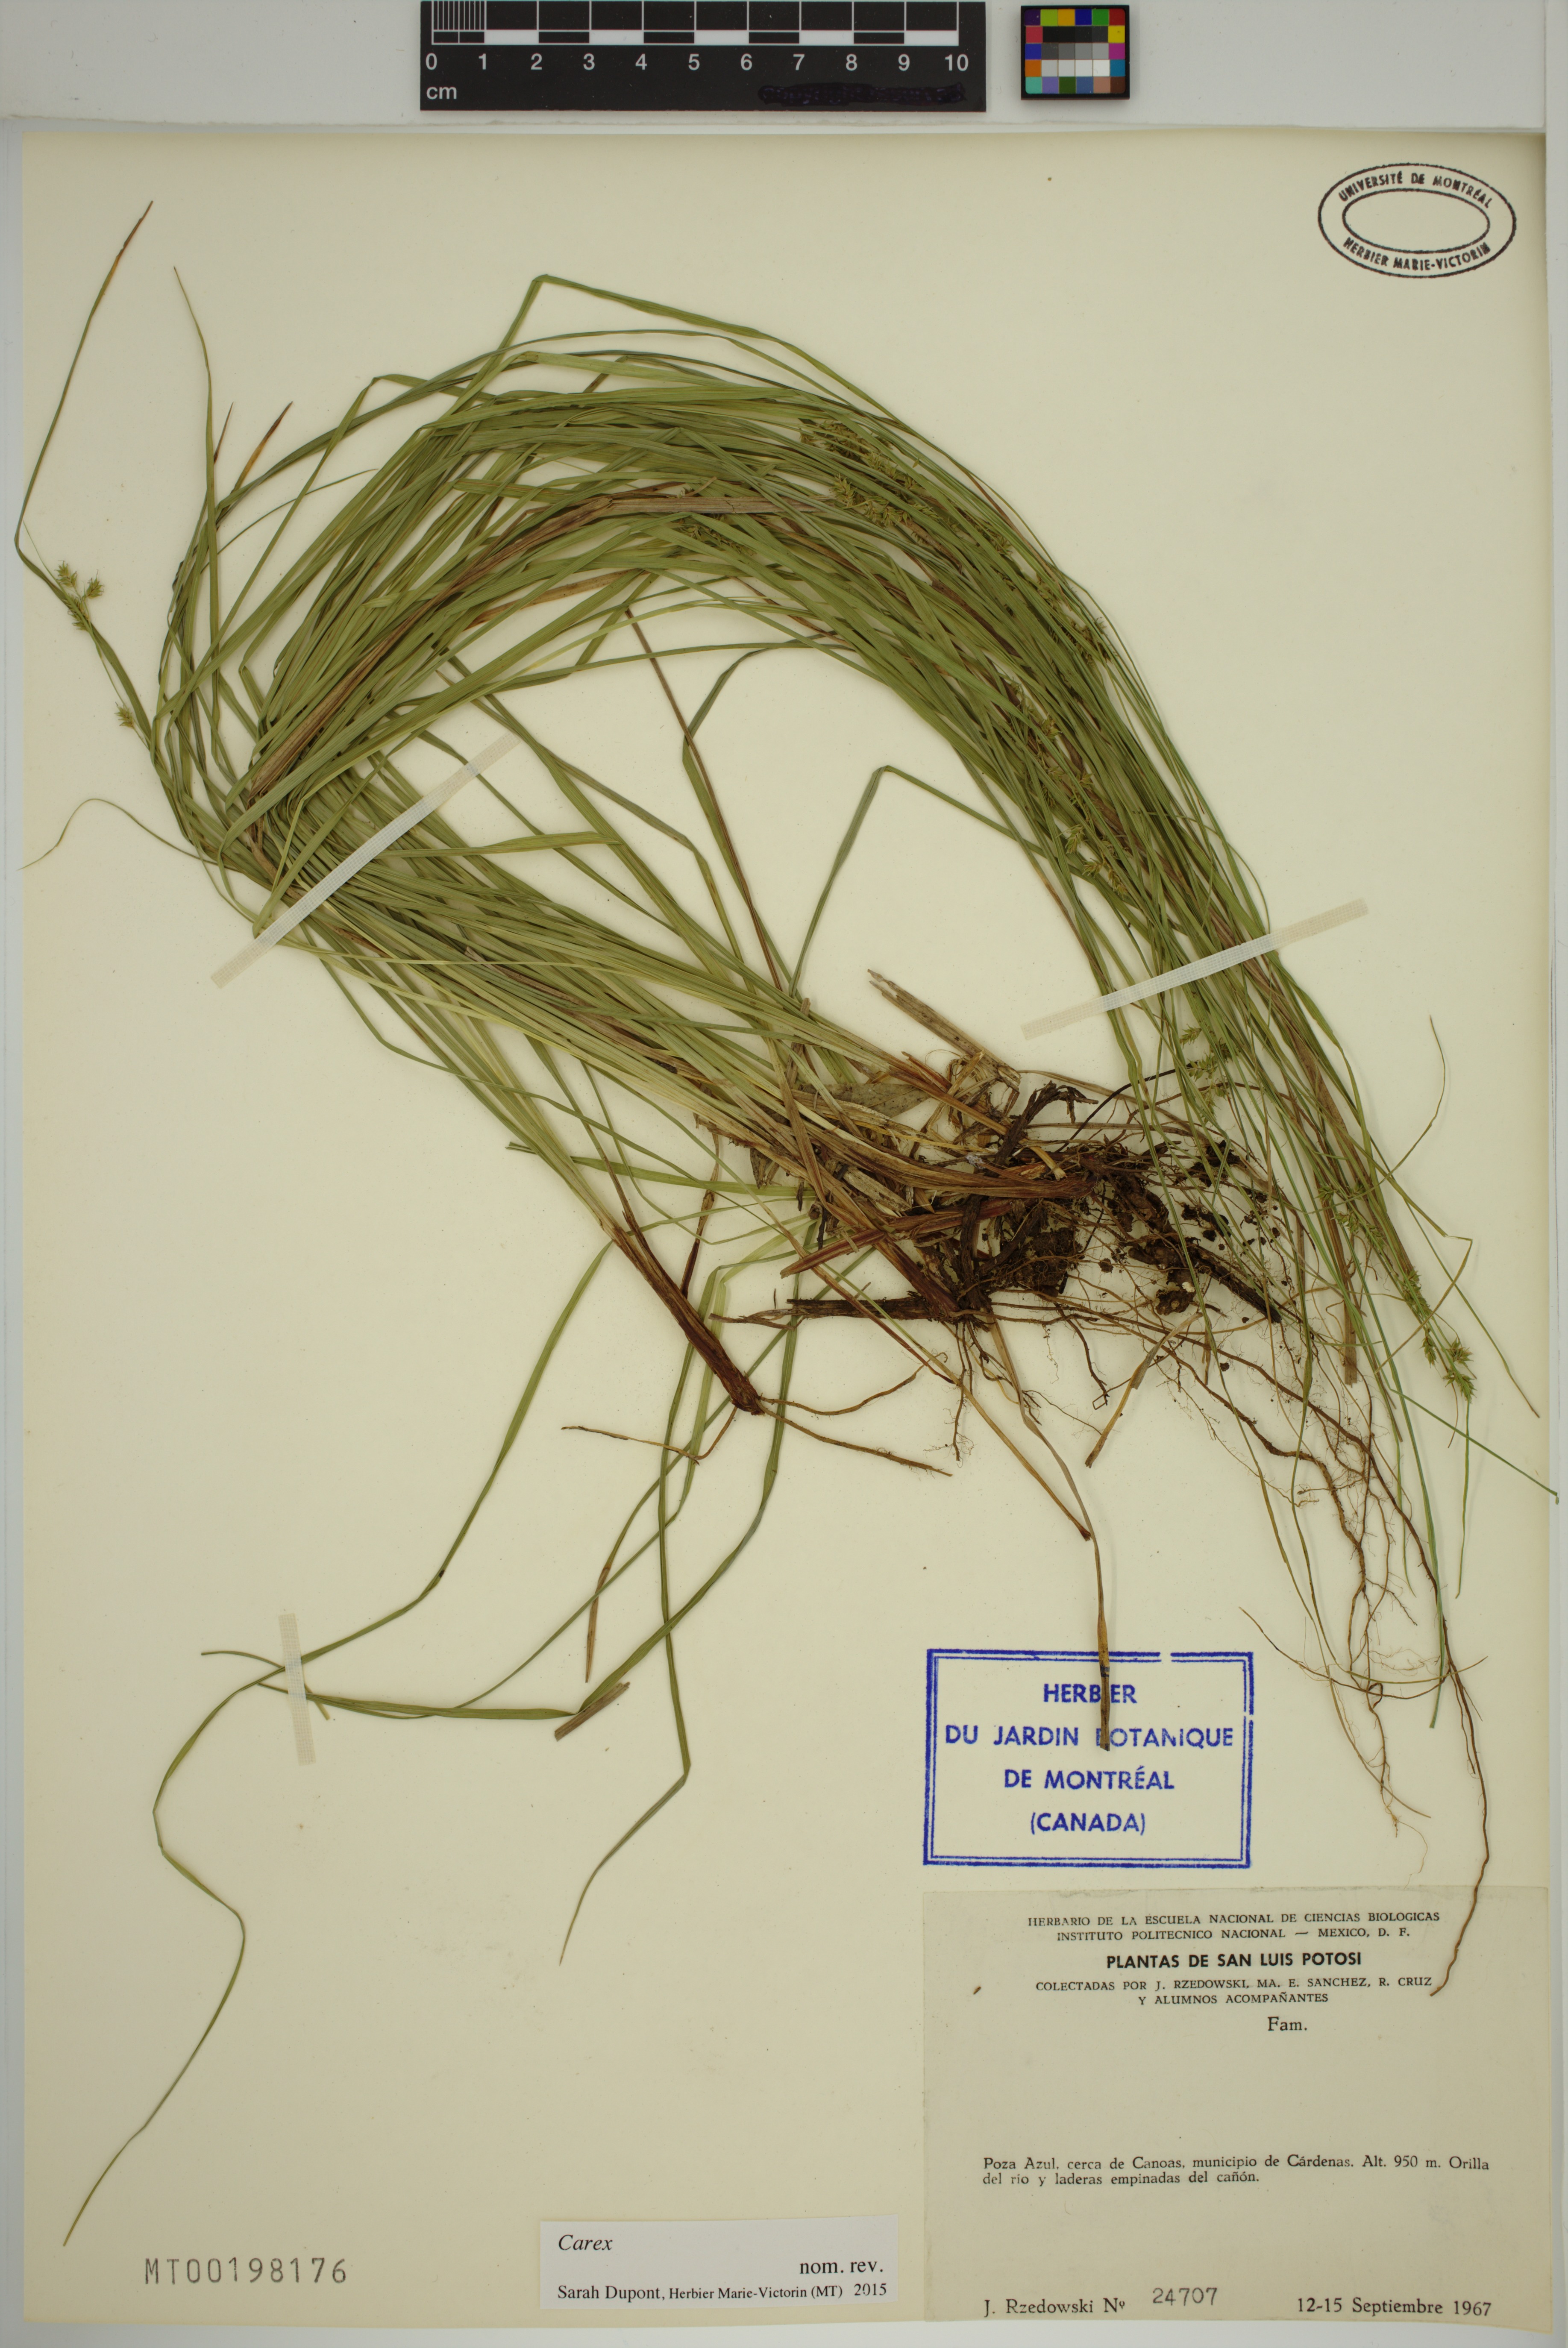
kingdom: Plantae
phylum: Tracheophyta
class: Liliopsida
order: Poales
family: Cyperaceae
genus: Carex
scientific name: Carex
